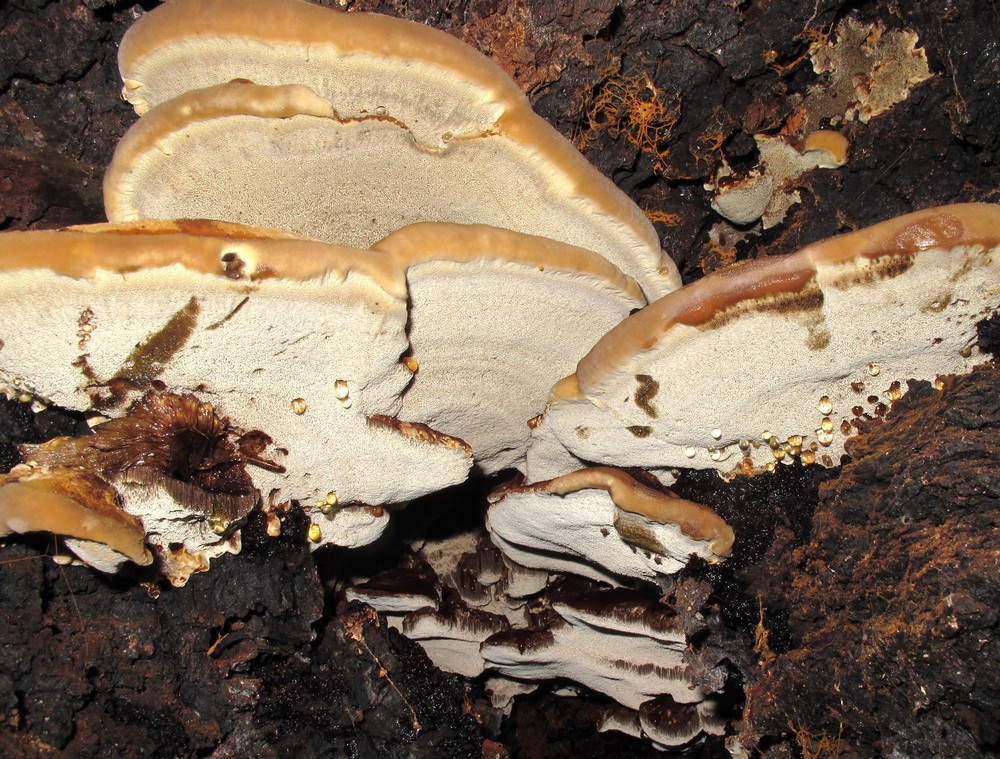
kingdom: Fungi
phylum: Basidiomycota
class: Agaricomycetes
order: Hymenochaetales
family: Hymenochaetaceae
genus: Inonotus
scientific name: Inonotus cuticularis
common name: kroghåret spejlporesvamp
